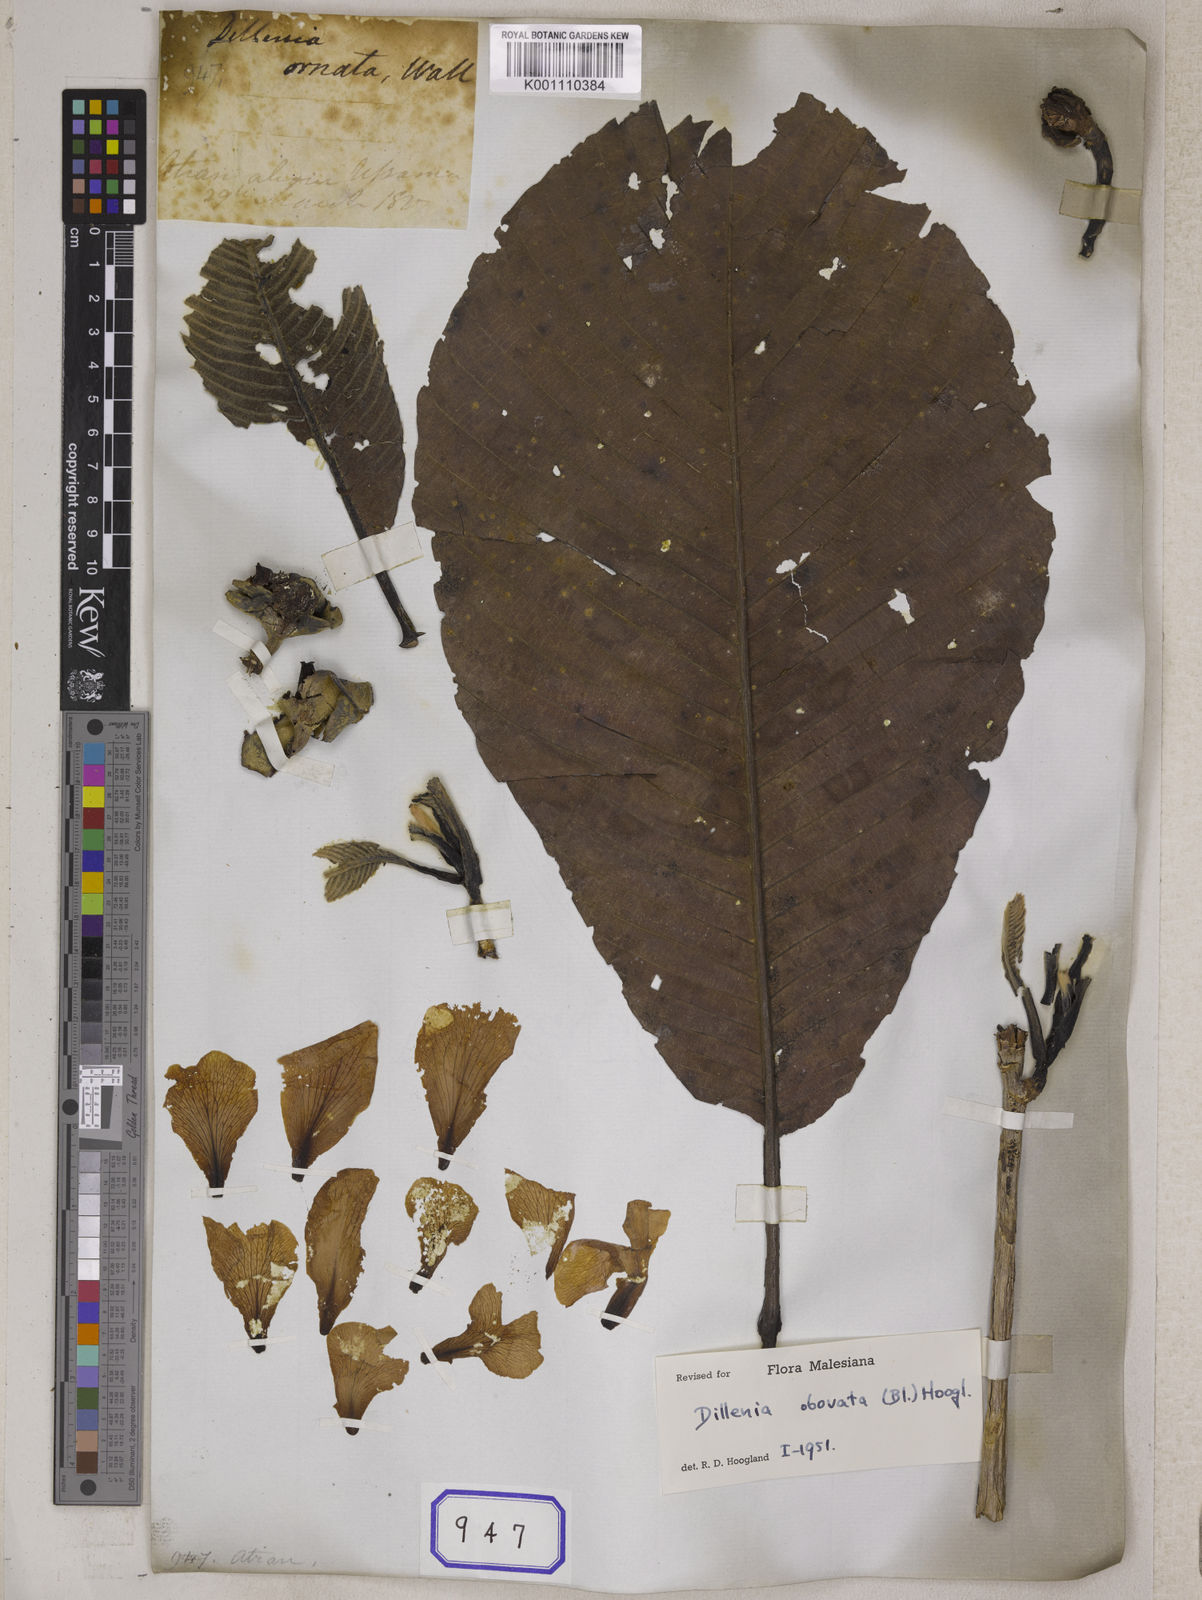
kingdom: Plantae
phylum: Tracheophyta
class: Magnoliopsida
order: Dilleniales
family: Dilleniaceae
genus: Dillenia
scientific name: Dillenia obovata
